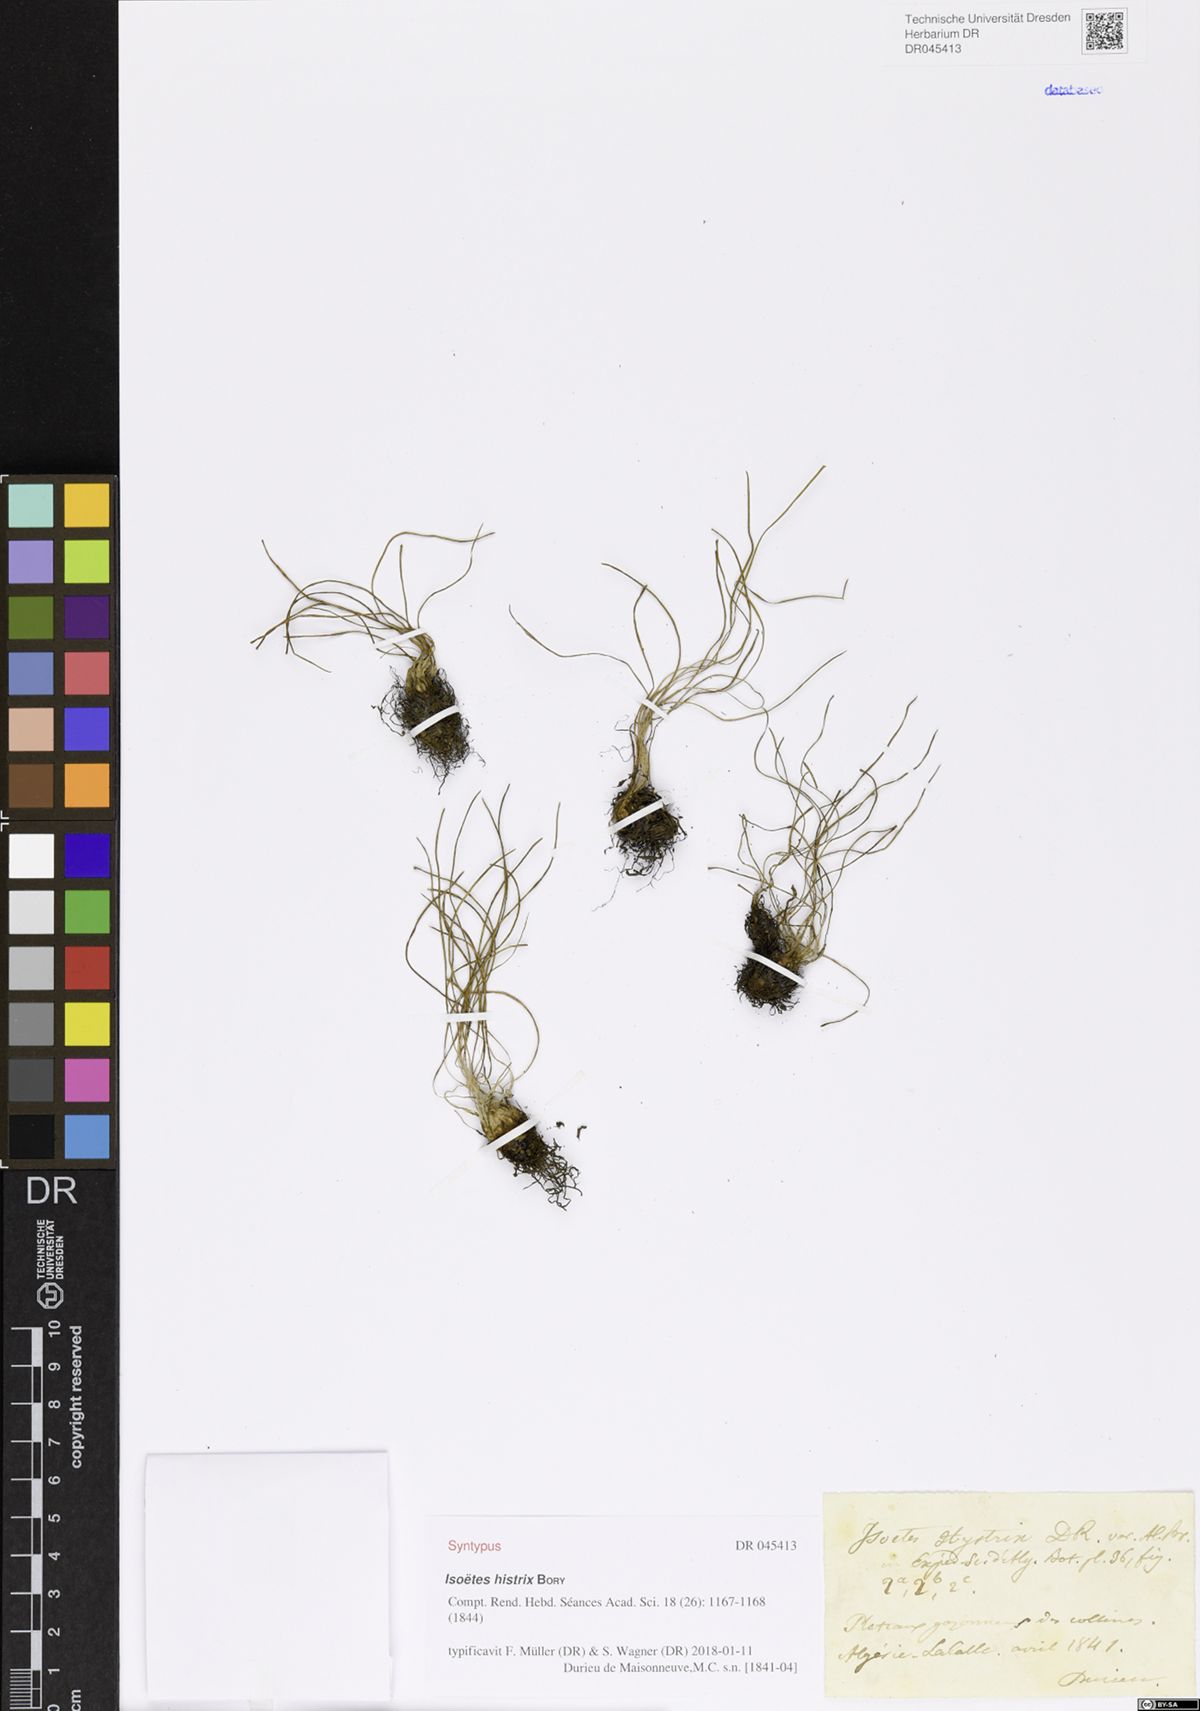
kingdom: Plantae
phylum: Tracheophyta
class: Lycopodiopsida
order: Isoetales
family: Isoetaceae
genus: Isoetes
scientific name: Isoetes histrix
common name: Land quillwort
